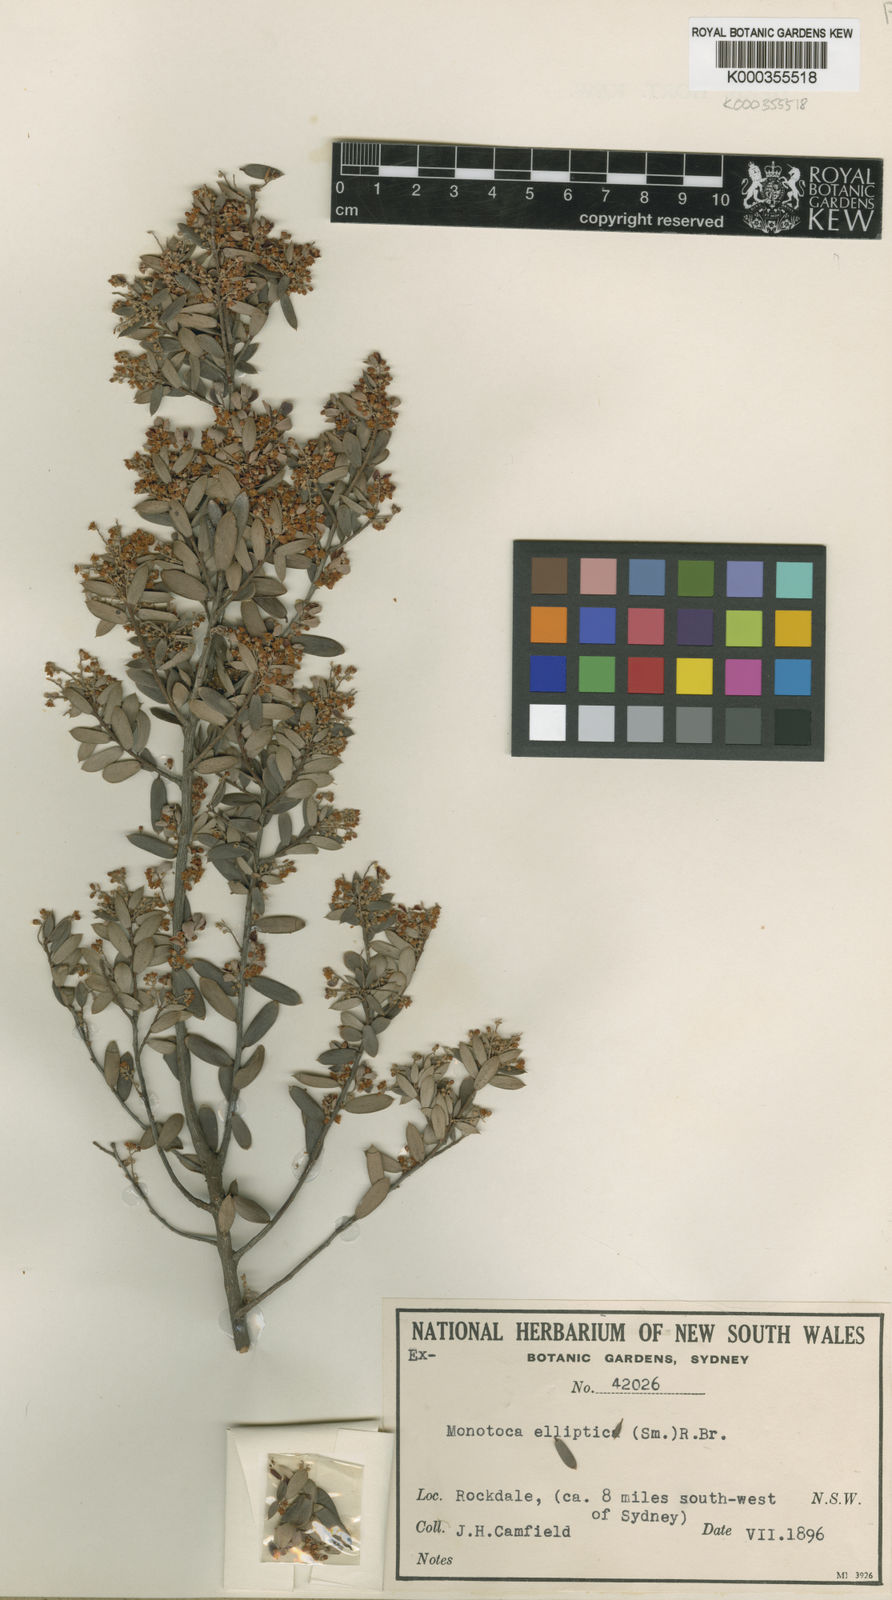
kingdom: Plantae
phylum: Tracheophyta
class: Magnoliopsida
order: Ericales
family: Ericaceae
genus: Monotoca
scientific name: Monotoca elliptica
